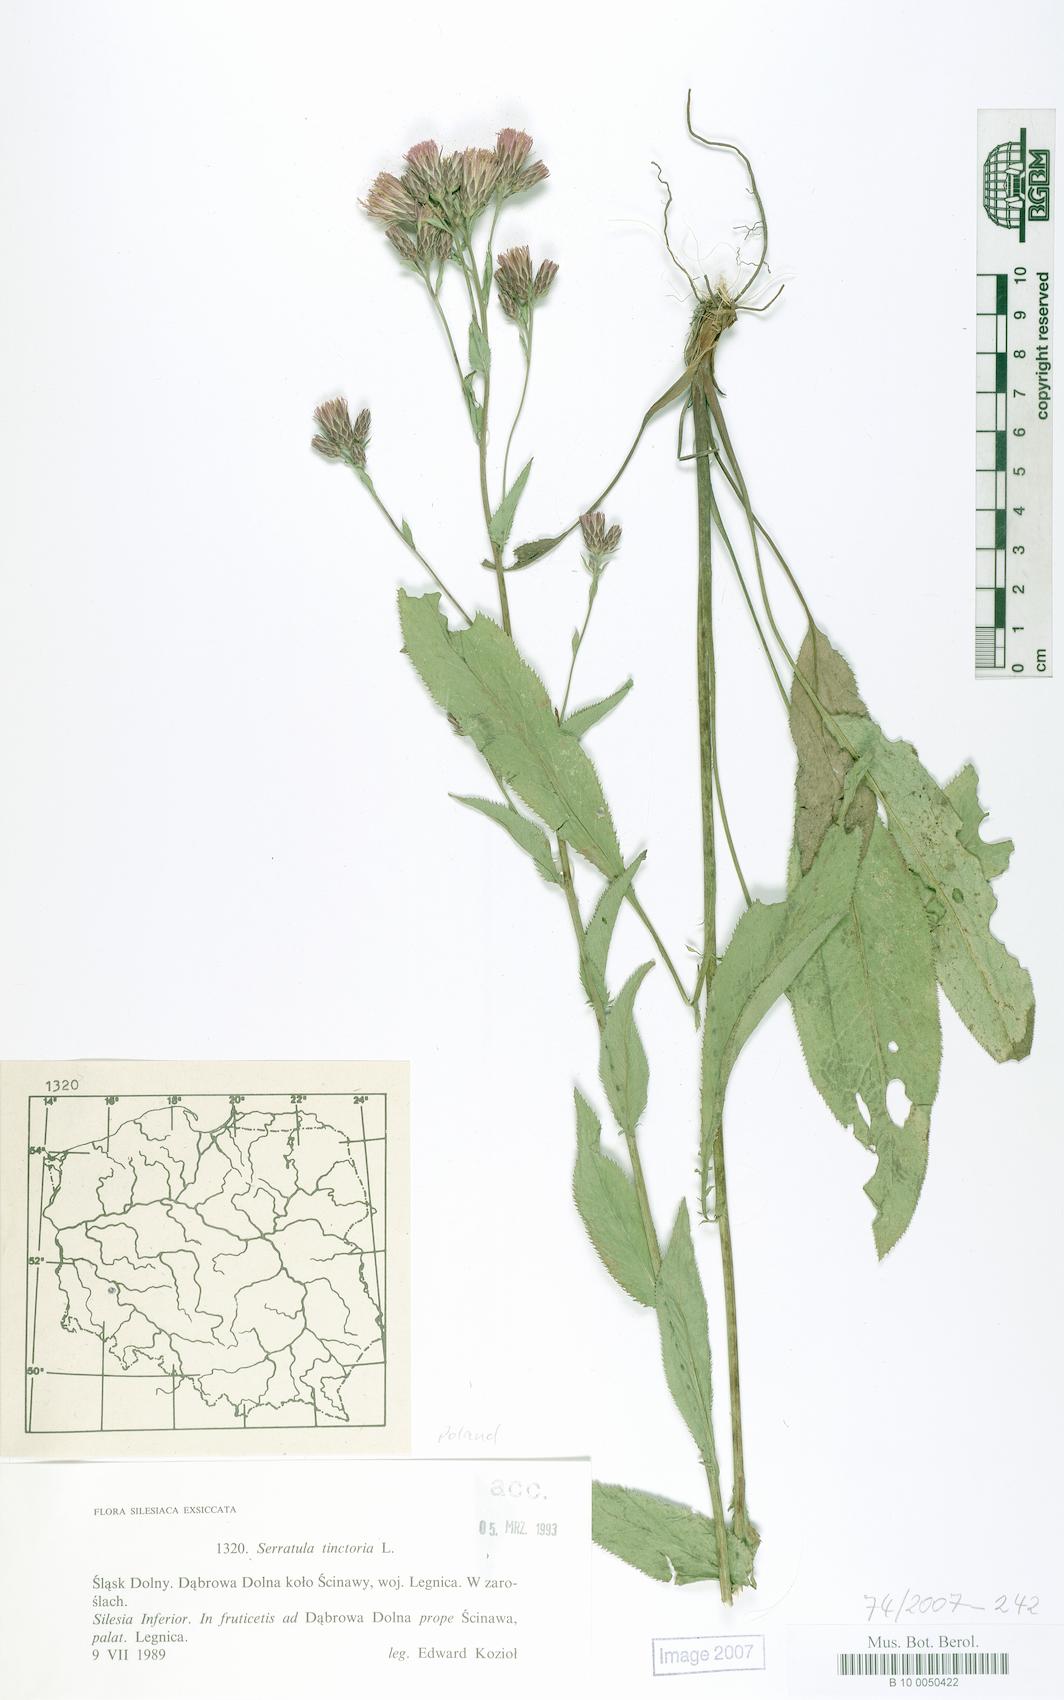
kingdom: Plantae
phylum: Tracheophyta
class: Magnoliopsida
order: Asterales
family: Asteraceae
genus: Serratula
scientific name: Serratula tinctoria
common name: Saw-wort
